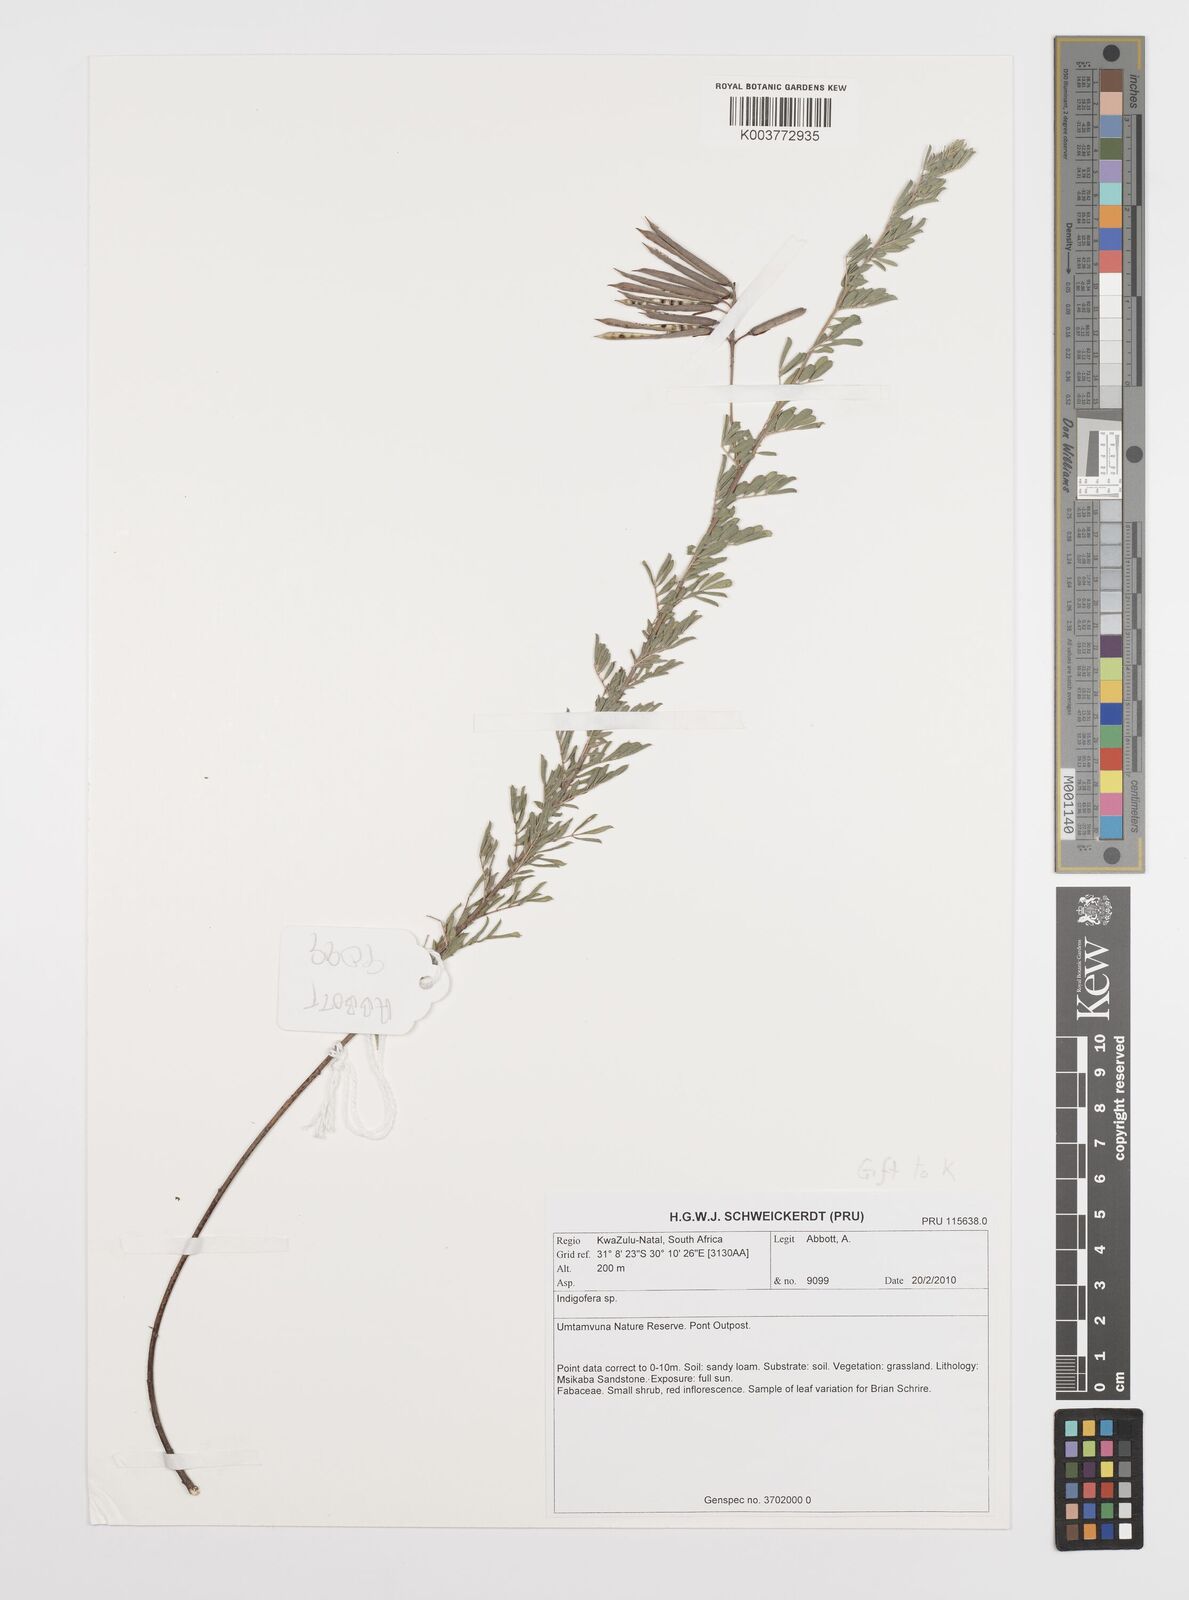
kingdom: Plantae
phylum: Tracheophyta
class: Magnoliopsida
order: Fabales
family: Fabaceae
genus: Indigofera
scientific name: Indigofera
